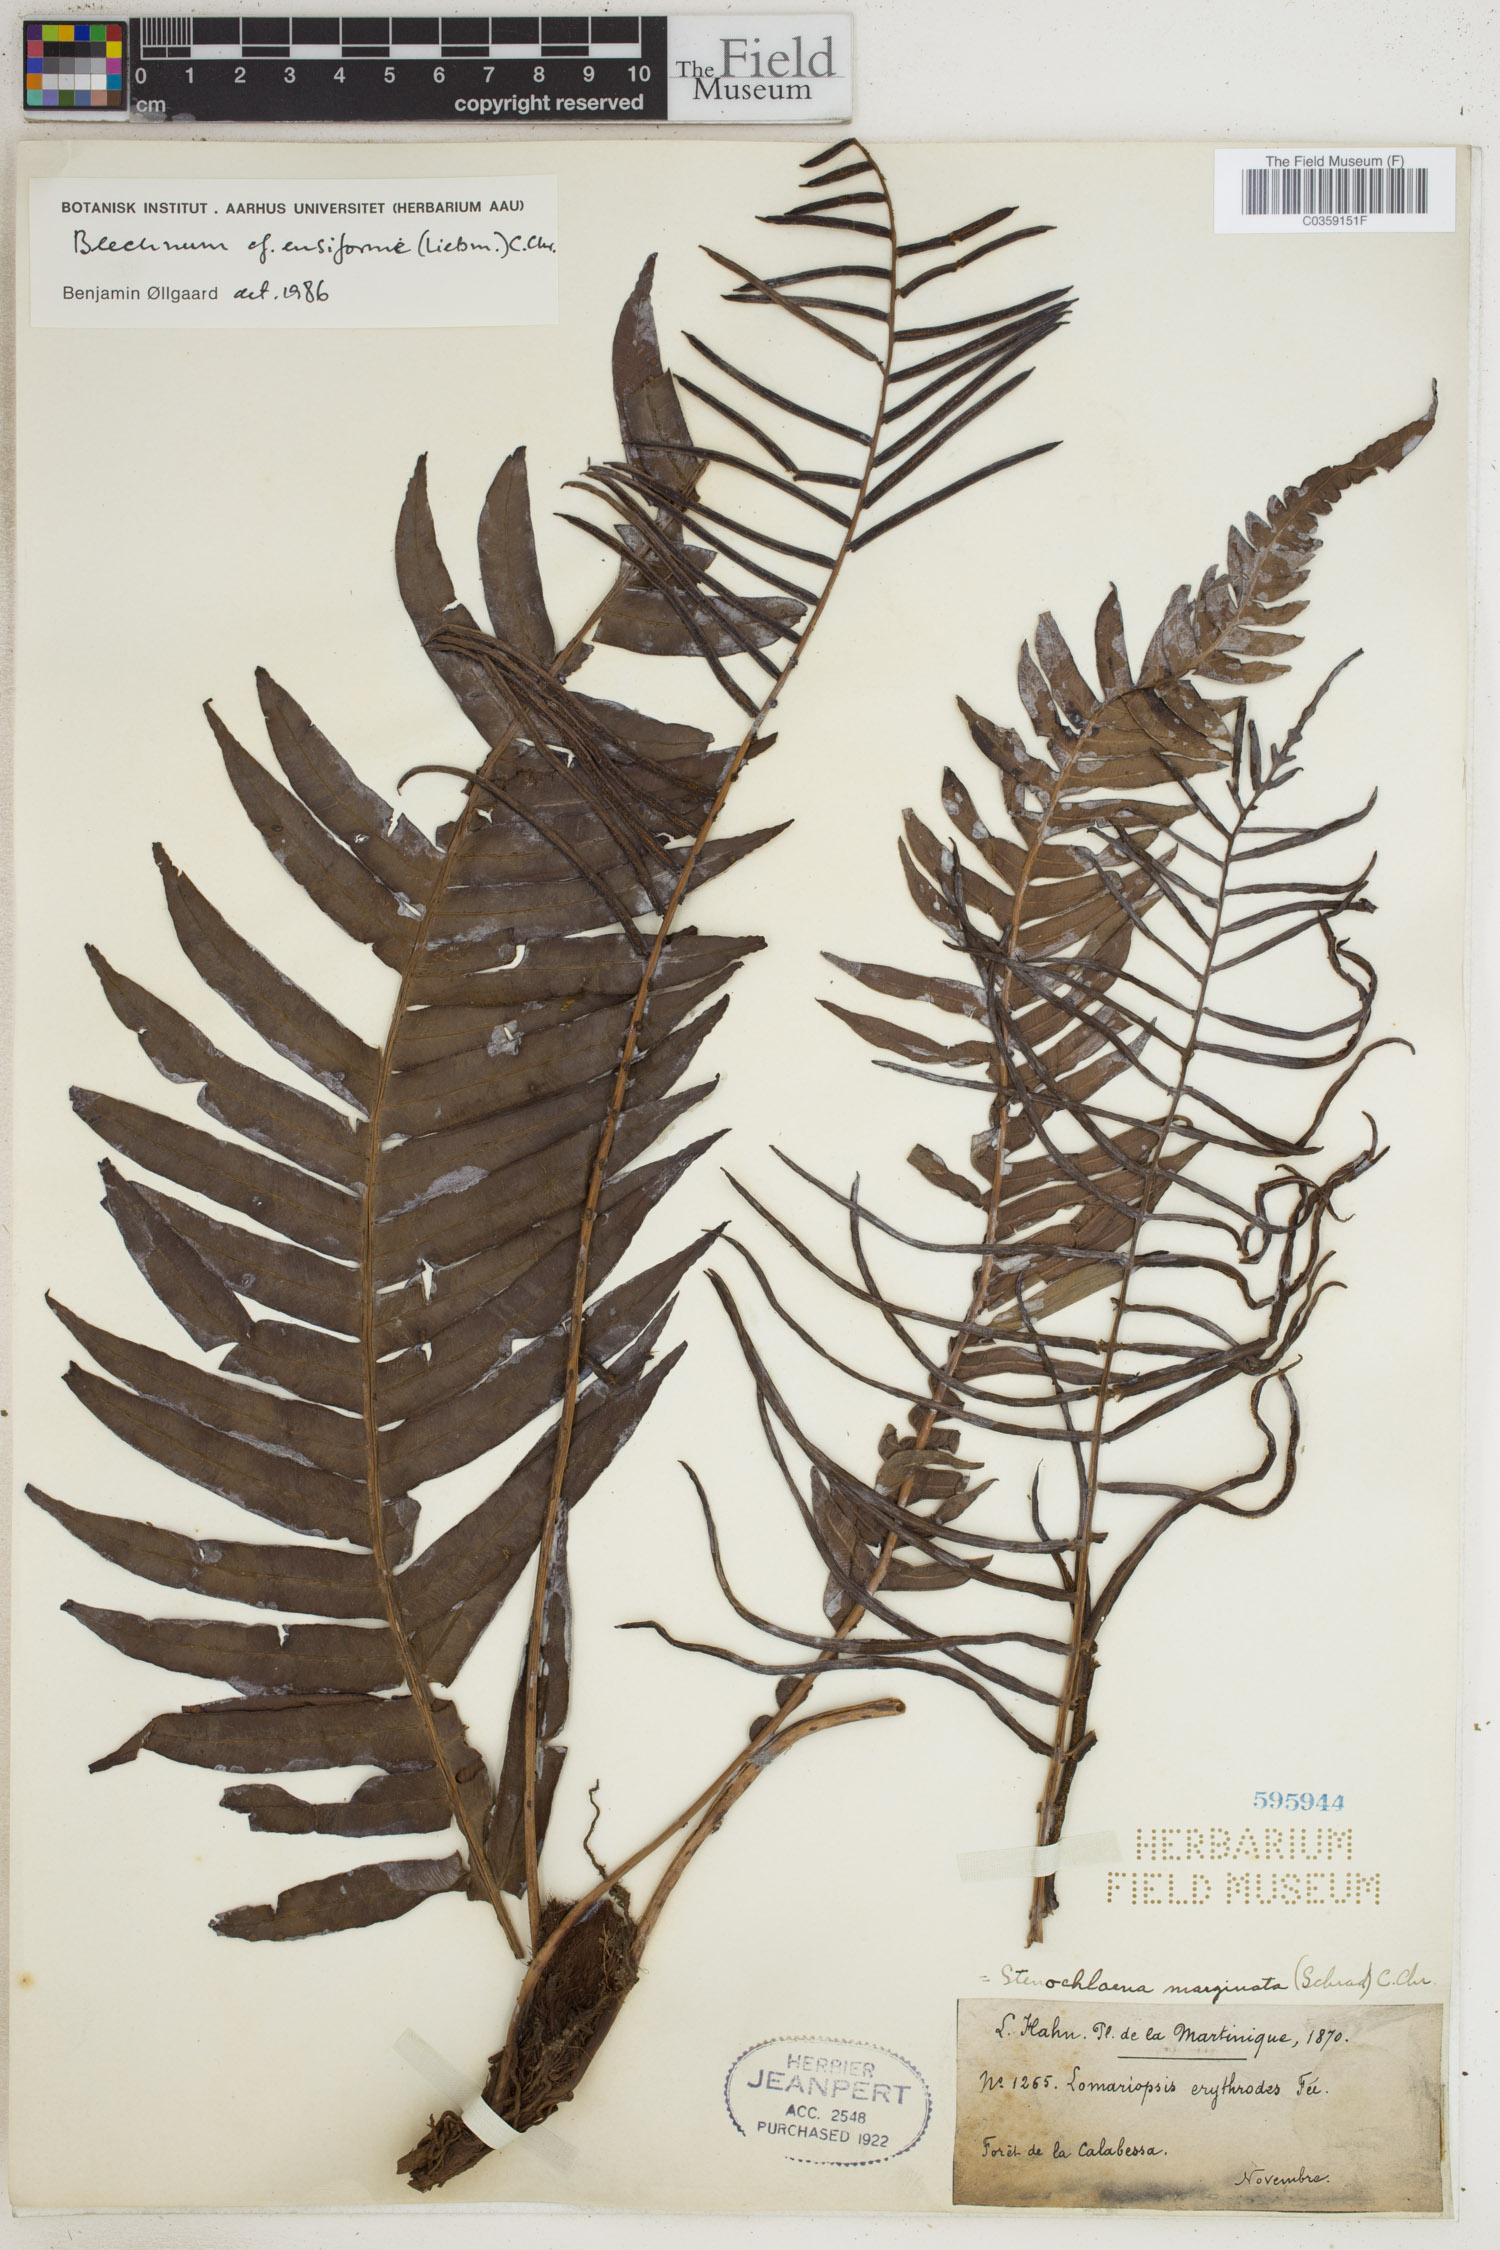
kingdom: Plantae
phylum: Tracheophyta
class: Polypodiopsida
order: Polypodiales
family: Blechnaceae
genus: Lomaridium
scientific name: Lomaridium ensiforme
